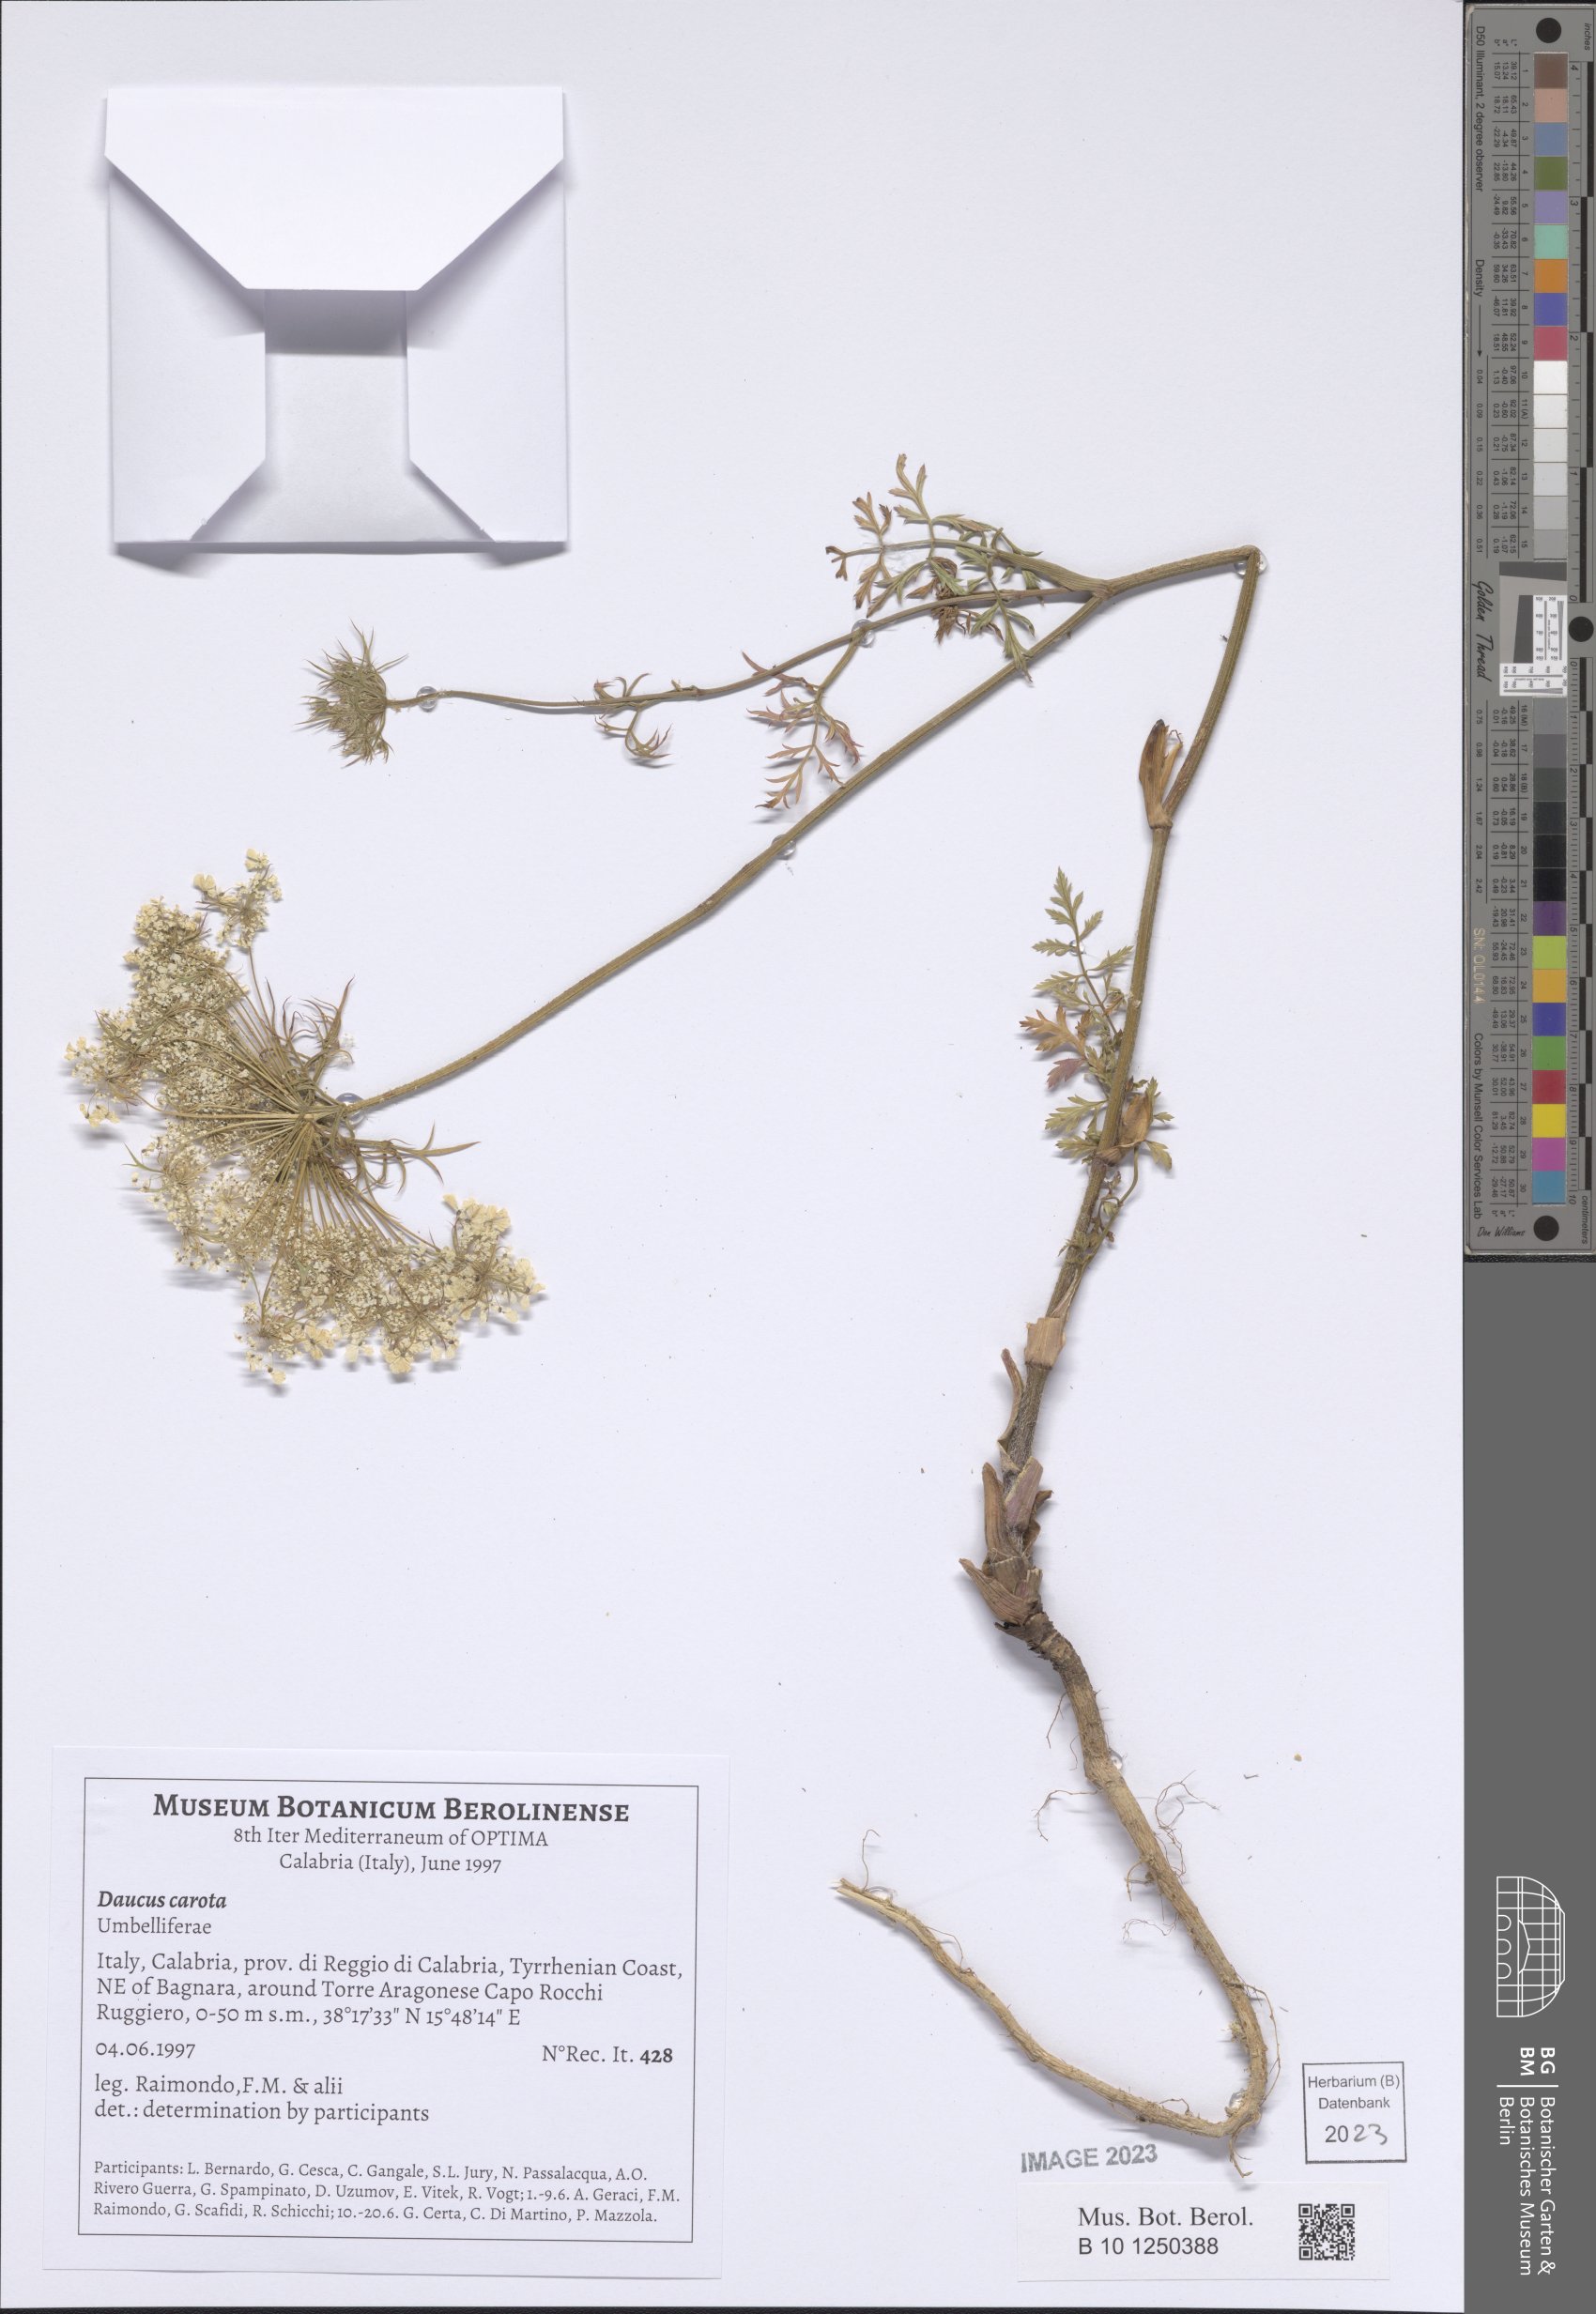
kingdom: Plantae
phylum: Tracheophyta
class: Magnoliopsida
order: Apiales
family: Apiaceae
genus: Daucus
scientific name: Daucus carota
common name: Wild carrot
